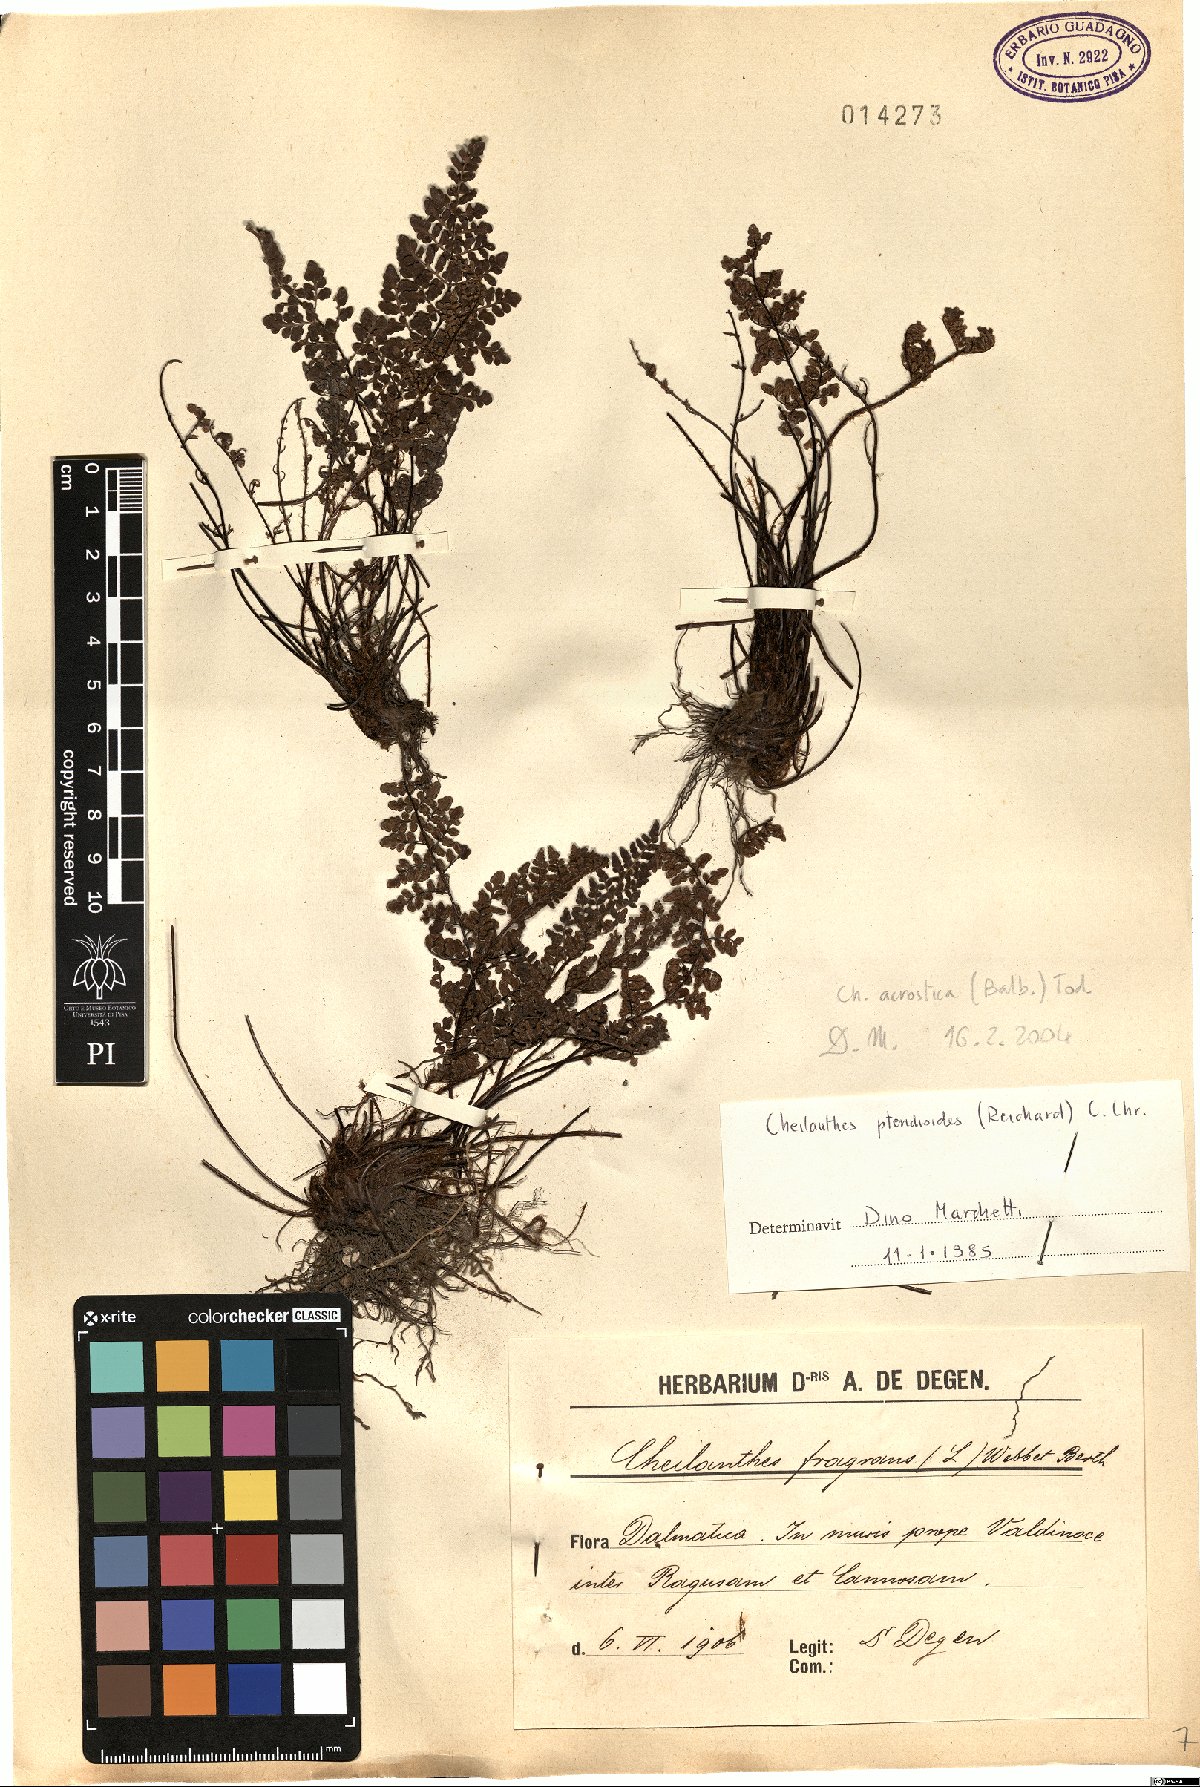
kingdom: Plantae
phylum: Tracheophyta
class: Polypodiopsida
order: Polypodiales
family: Pteridaceae
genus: Oeosporangium
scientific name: Oeosporangium pteridioides
